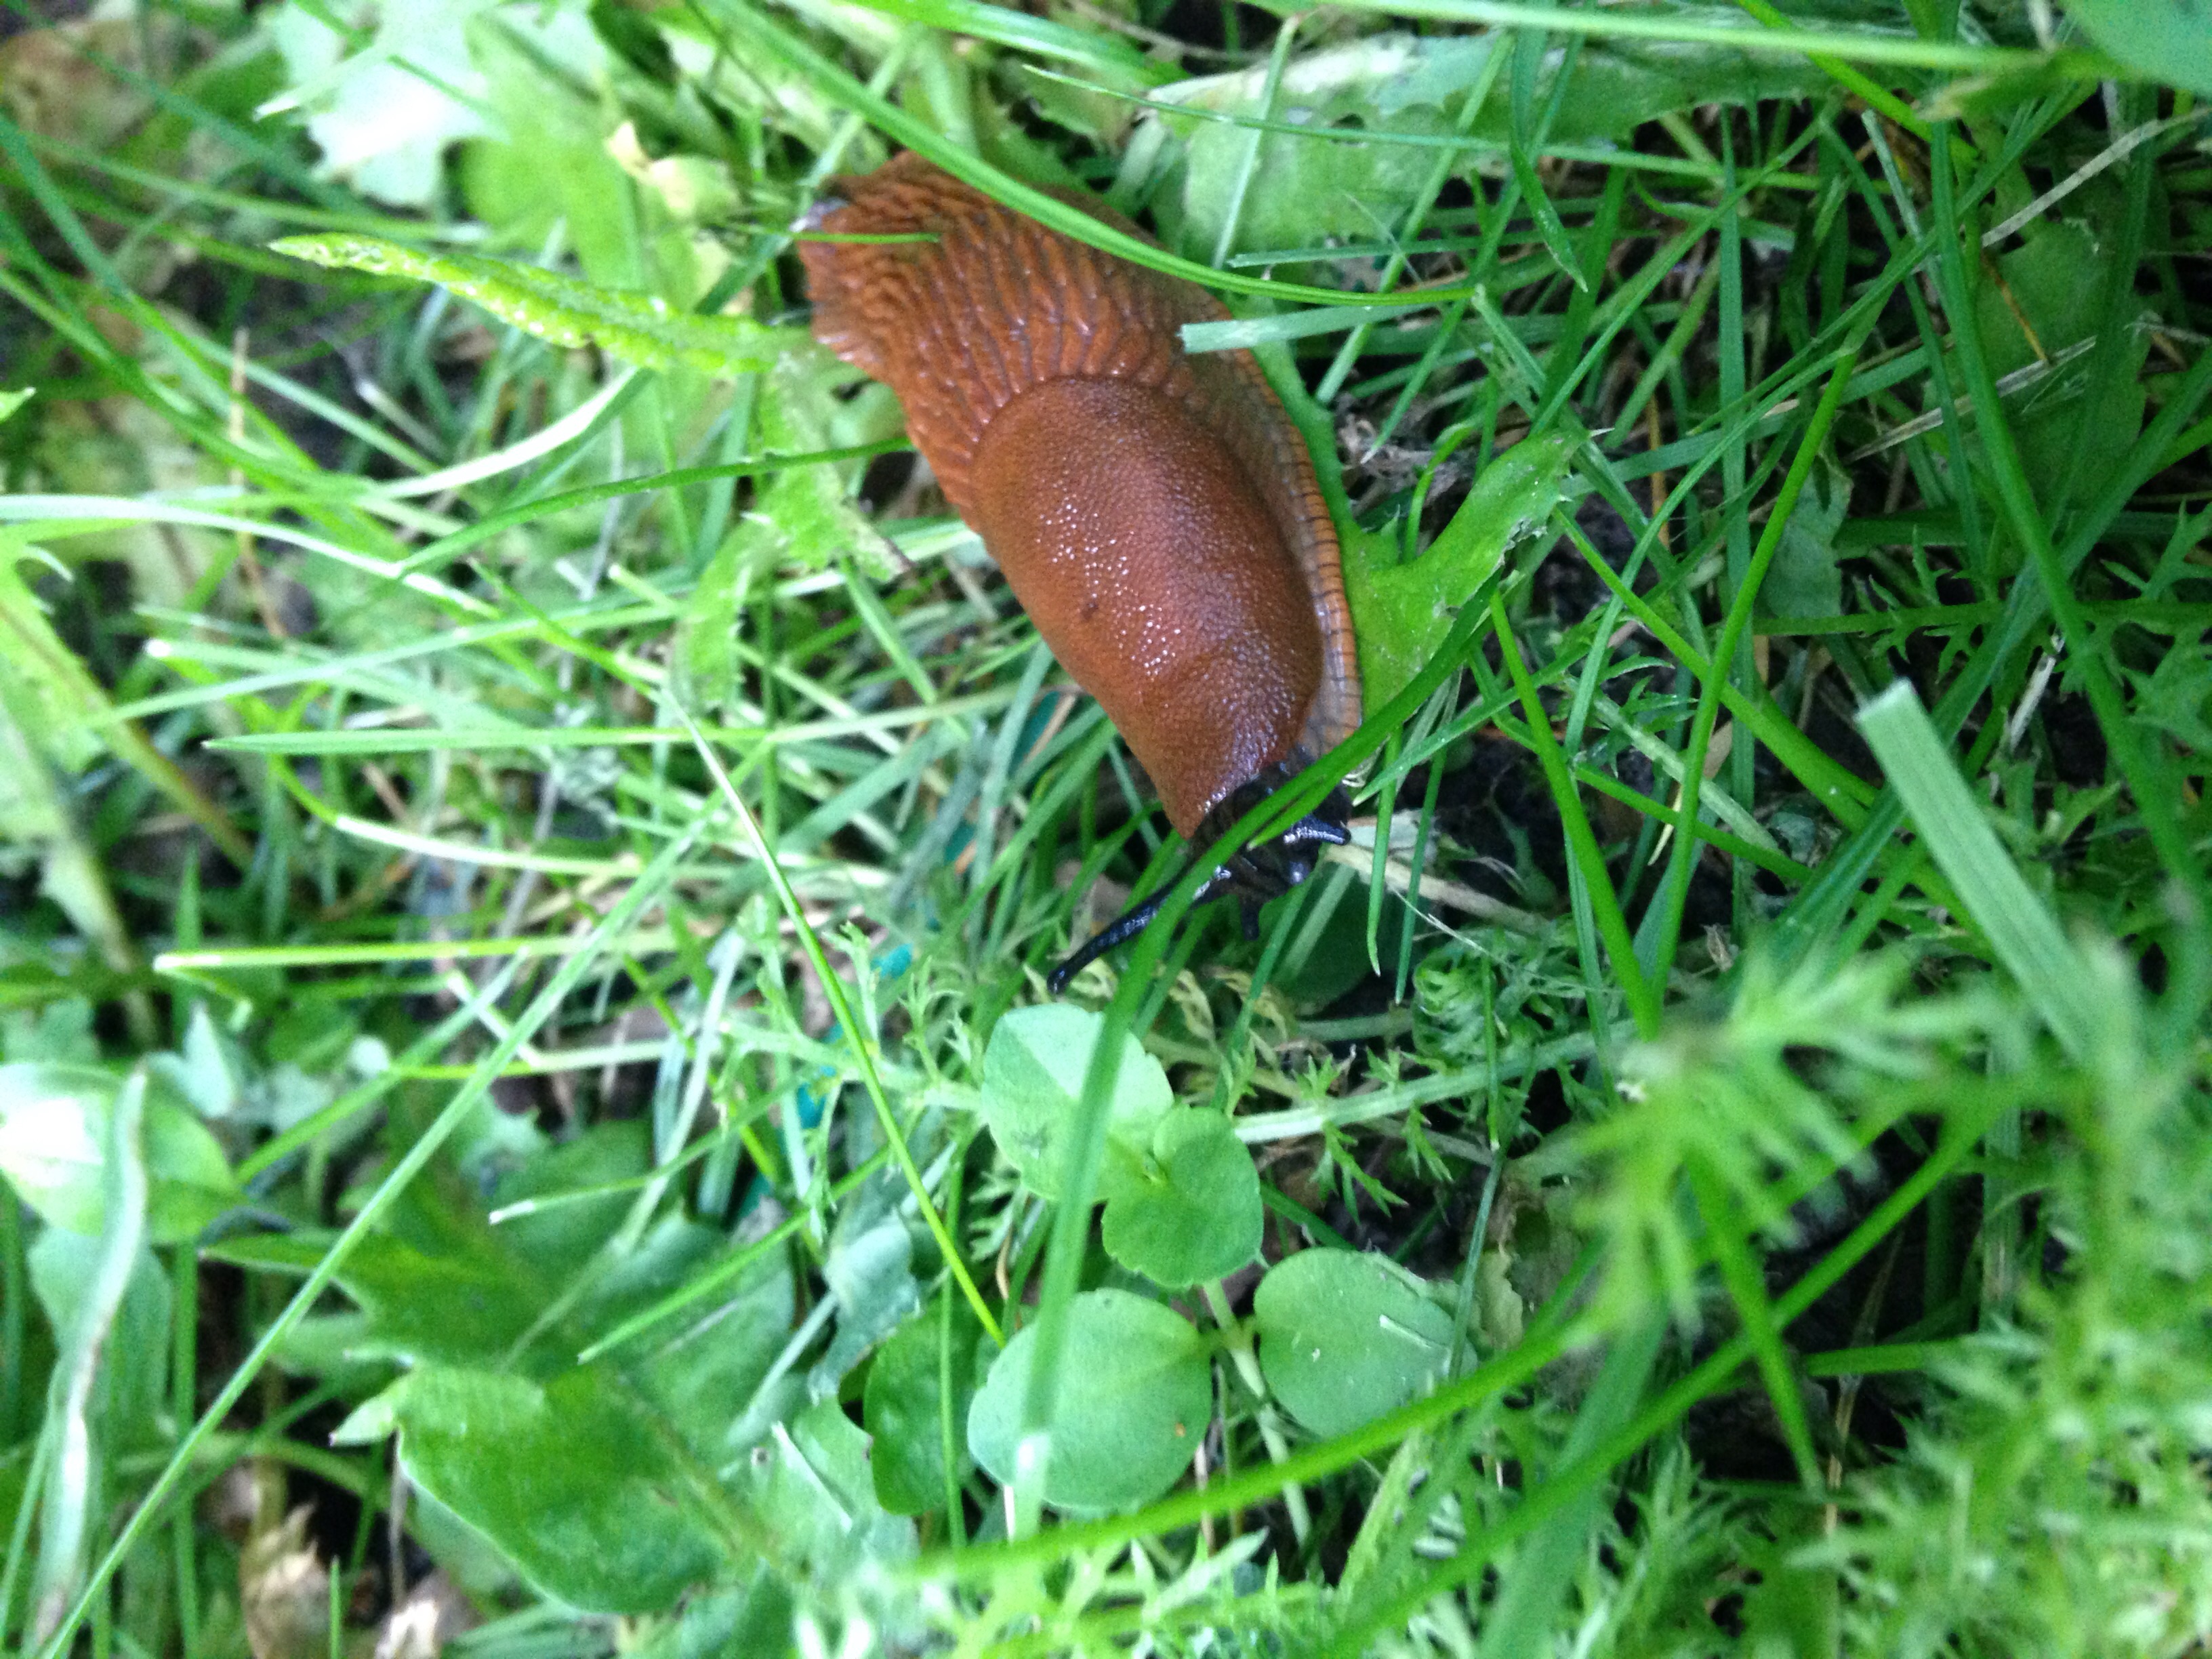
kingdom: Animalia
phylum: Mollusca
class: Gastropoda
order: Stylommatophora
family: Arionidae
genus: Arion
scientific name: Arion vulgaris
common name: Lusitanian slug
